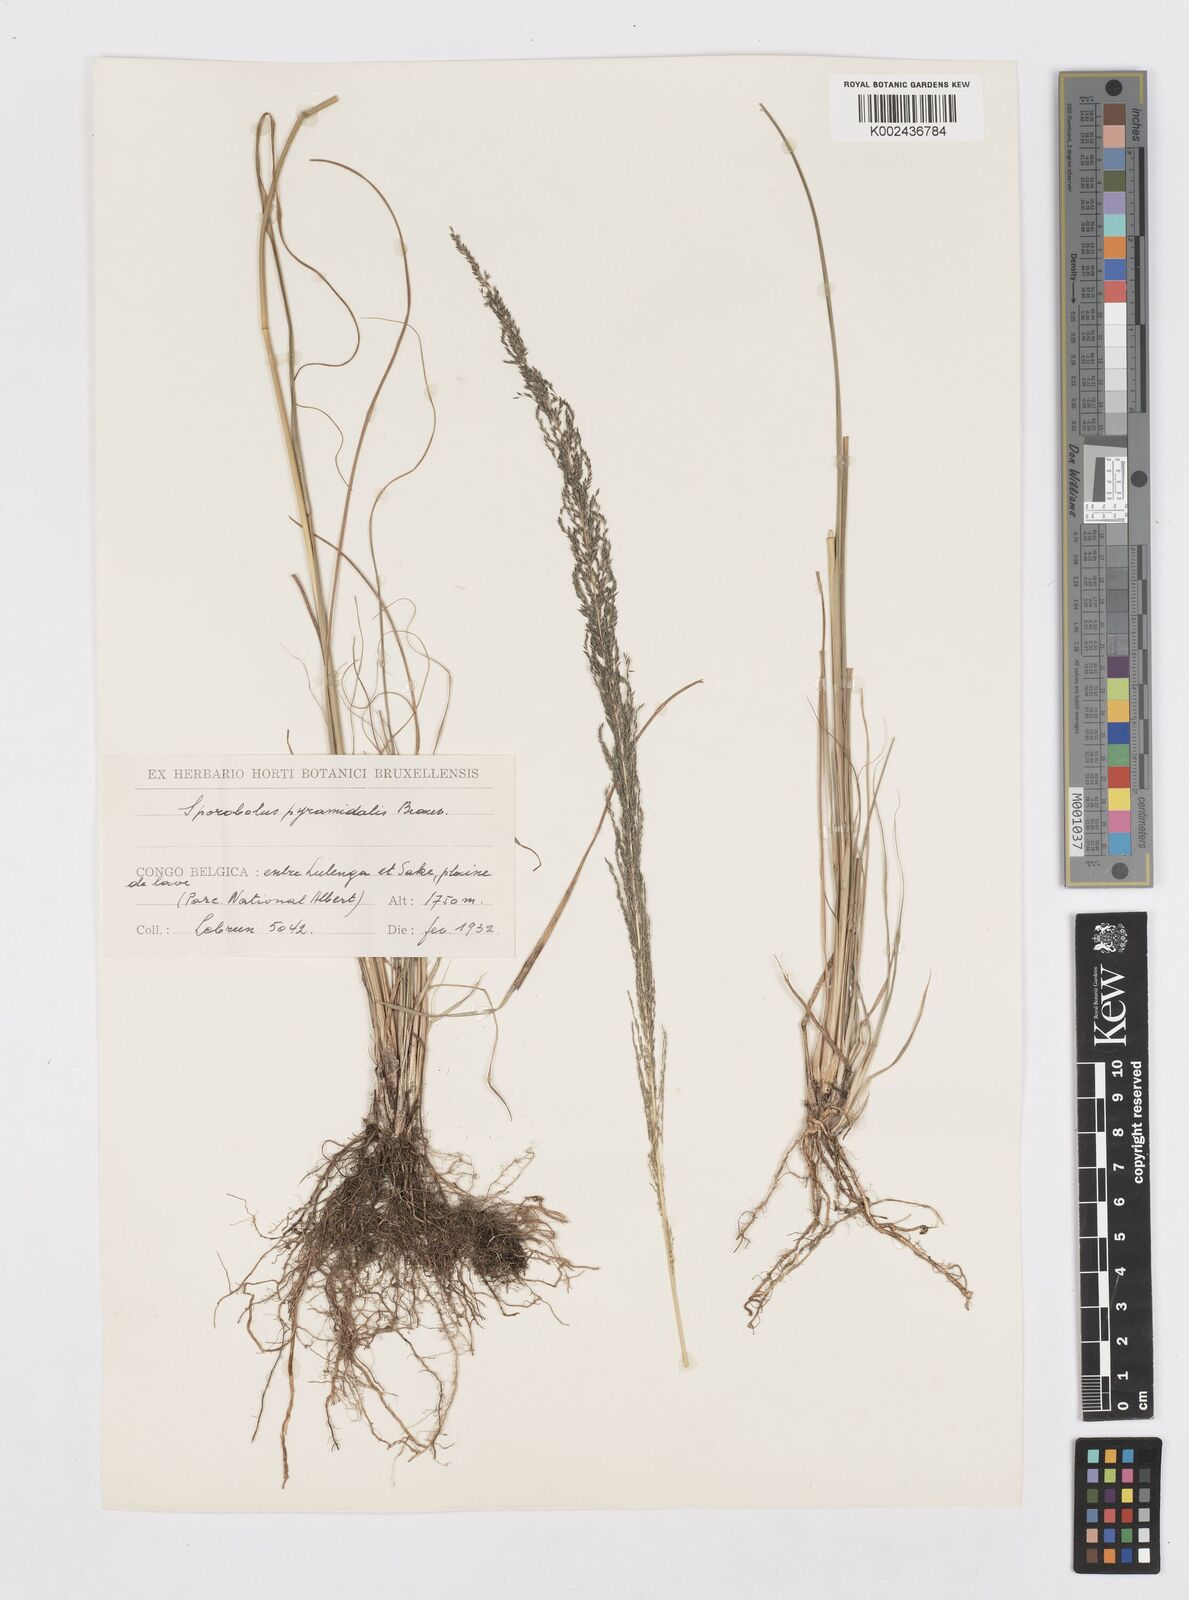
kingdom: Plantae
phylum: Tracheophyta
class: Liliopsida
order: Poales
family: Poaceae
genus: Sporobolus
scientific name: Sporobolus pyramidalis
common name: West indian dropseed
